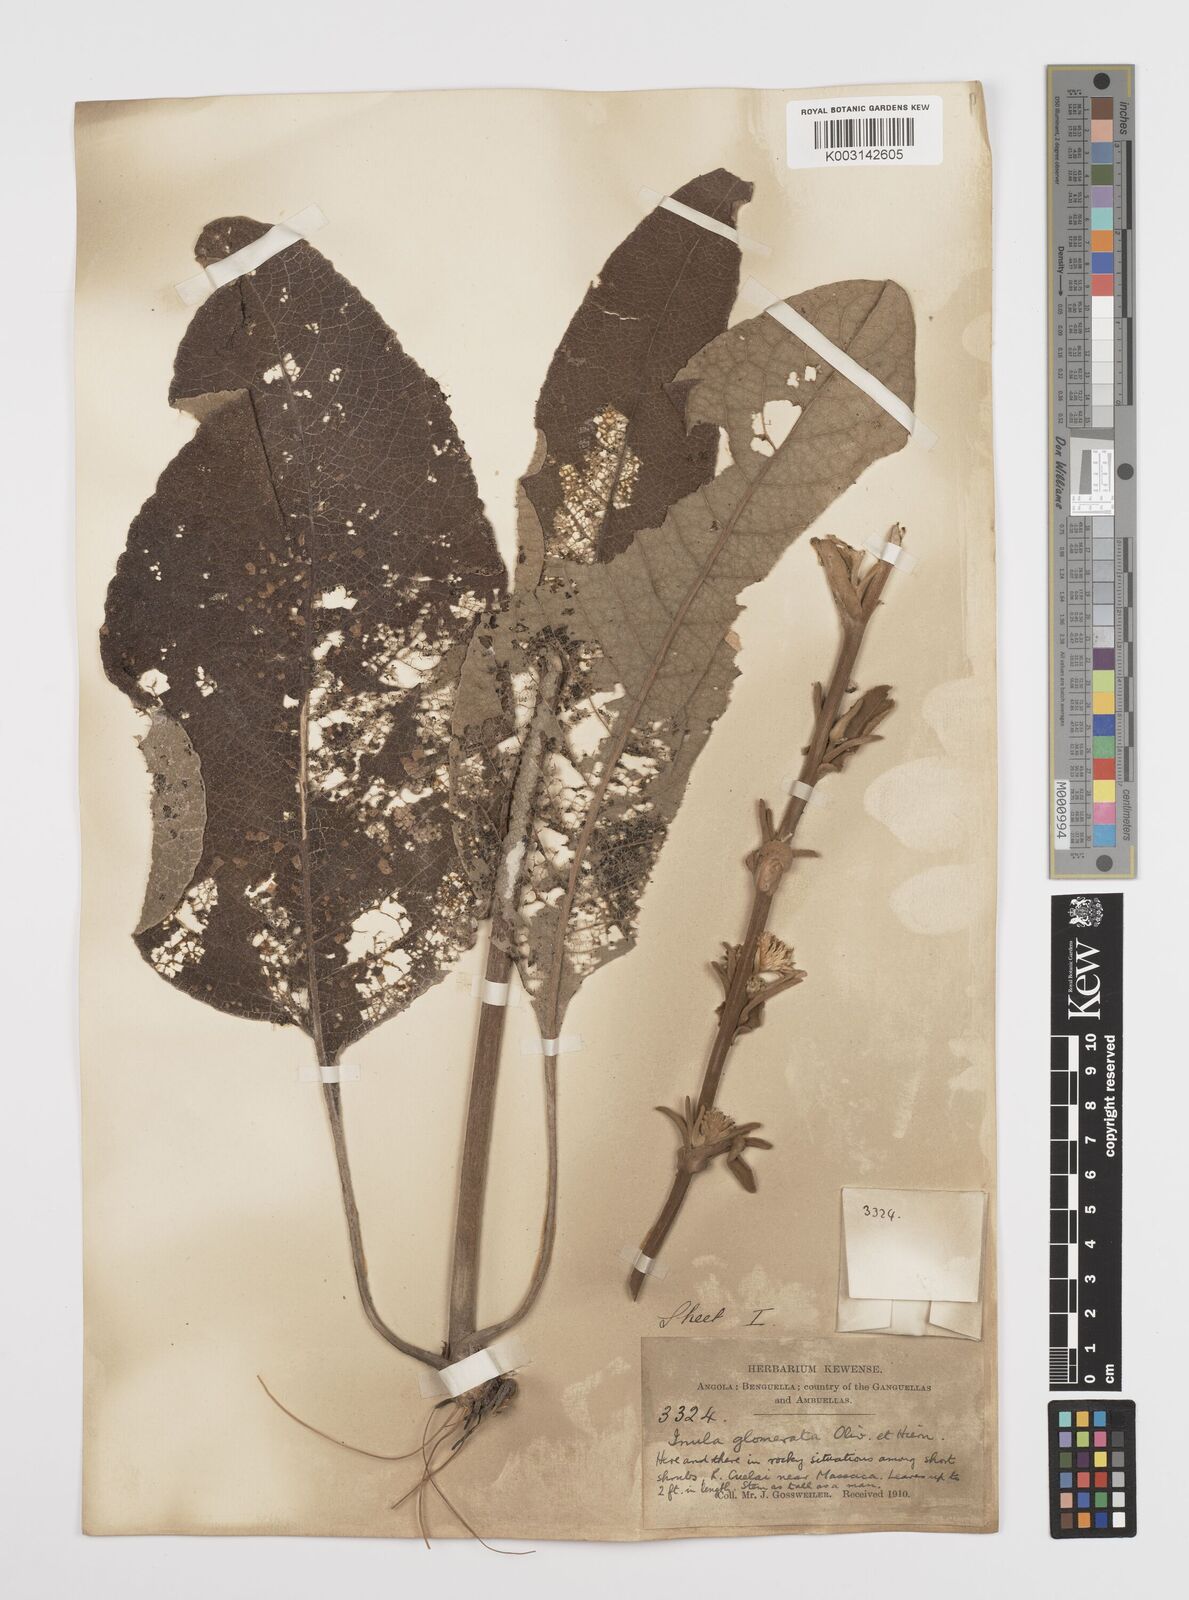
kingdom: Plantae
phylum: Tracheophyta
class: Magnoliopsida
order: Asterales
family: Asteraceae
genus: Inula
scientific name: Inula glomerata
